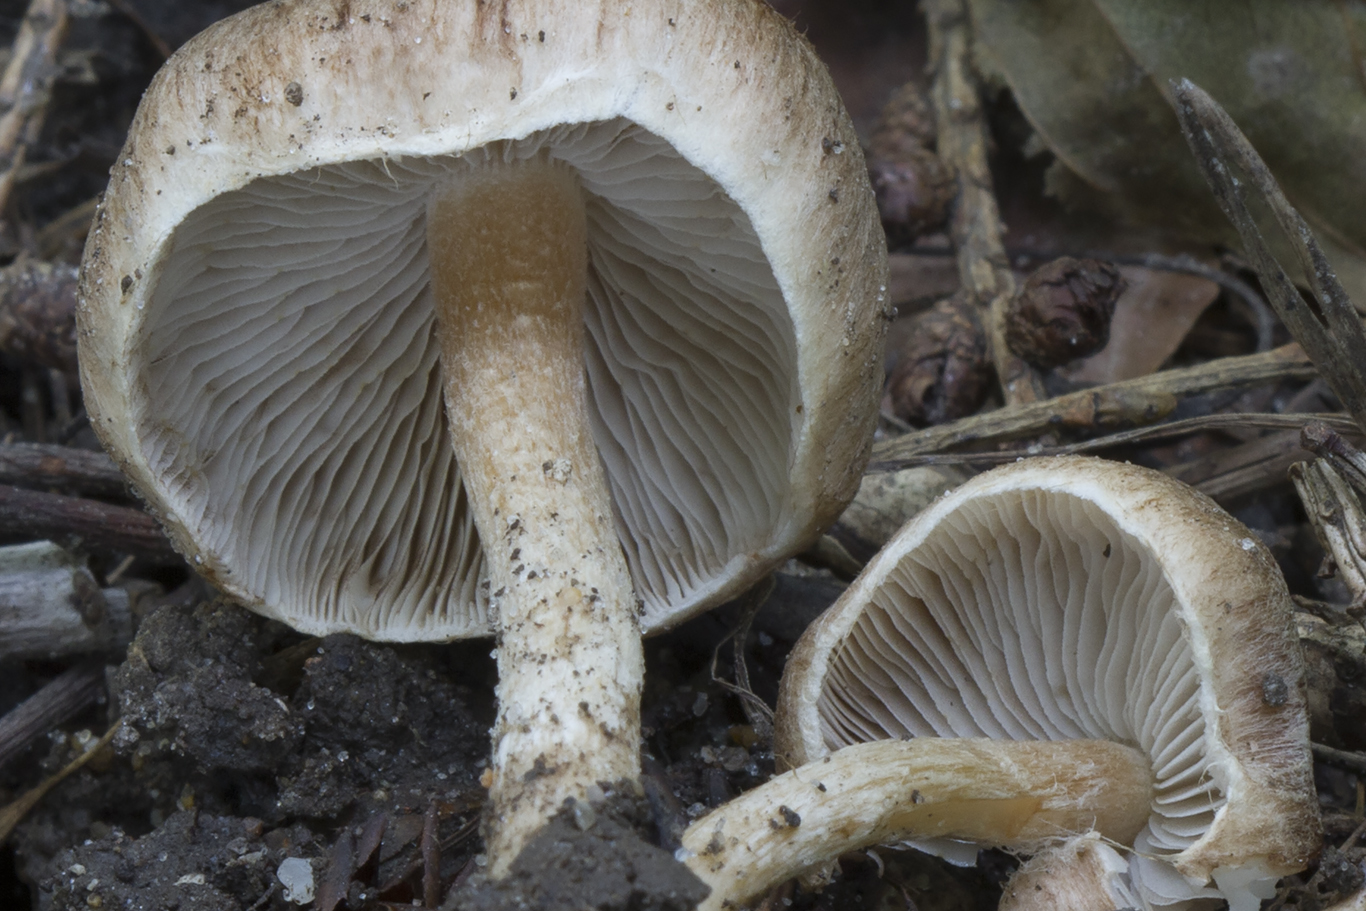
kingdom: Fungi
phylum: Basidiomycota
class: Agaricomycetes
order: Agaricales
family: Inocybaceae
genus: Inocybe
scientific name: Inocybe semifulva
